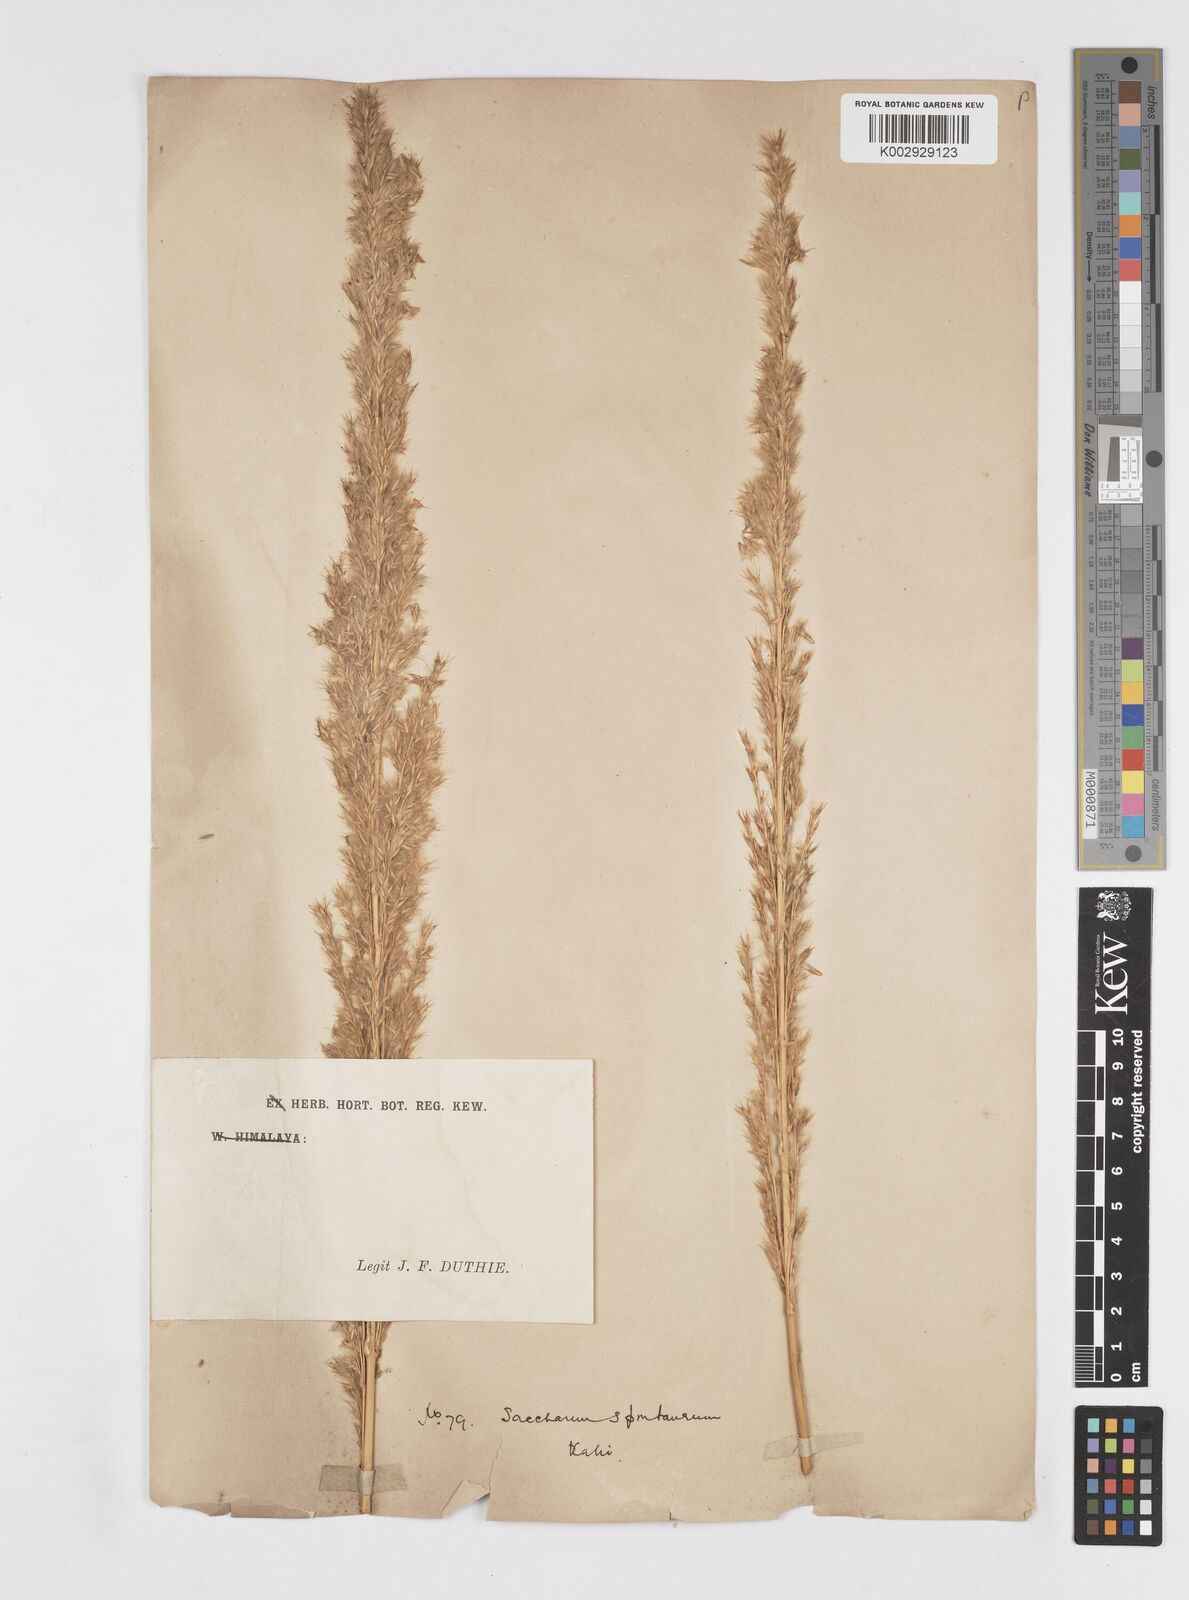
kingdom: Plantae
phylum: Tracheophyta
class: Liliopsida
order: Poales
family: Poaceae
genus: Tripidium
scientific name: Tripidium bengalense
